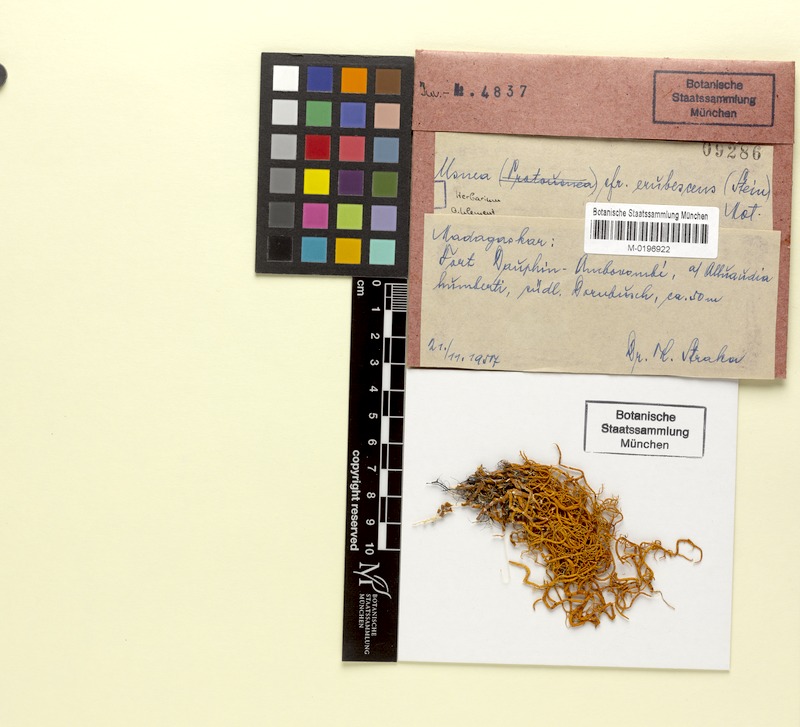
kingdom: Fungi
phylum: Ascomycota
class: Lecanoromycetes
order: Lecanorales
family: Parmeliaceae
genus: Usnea
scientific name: Usnea
